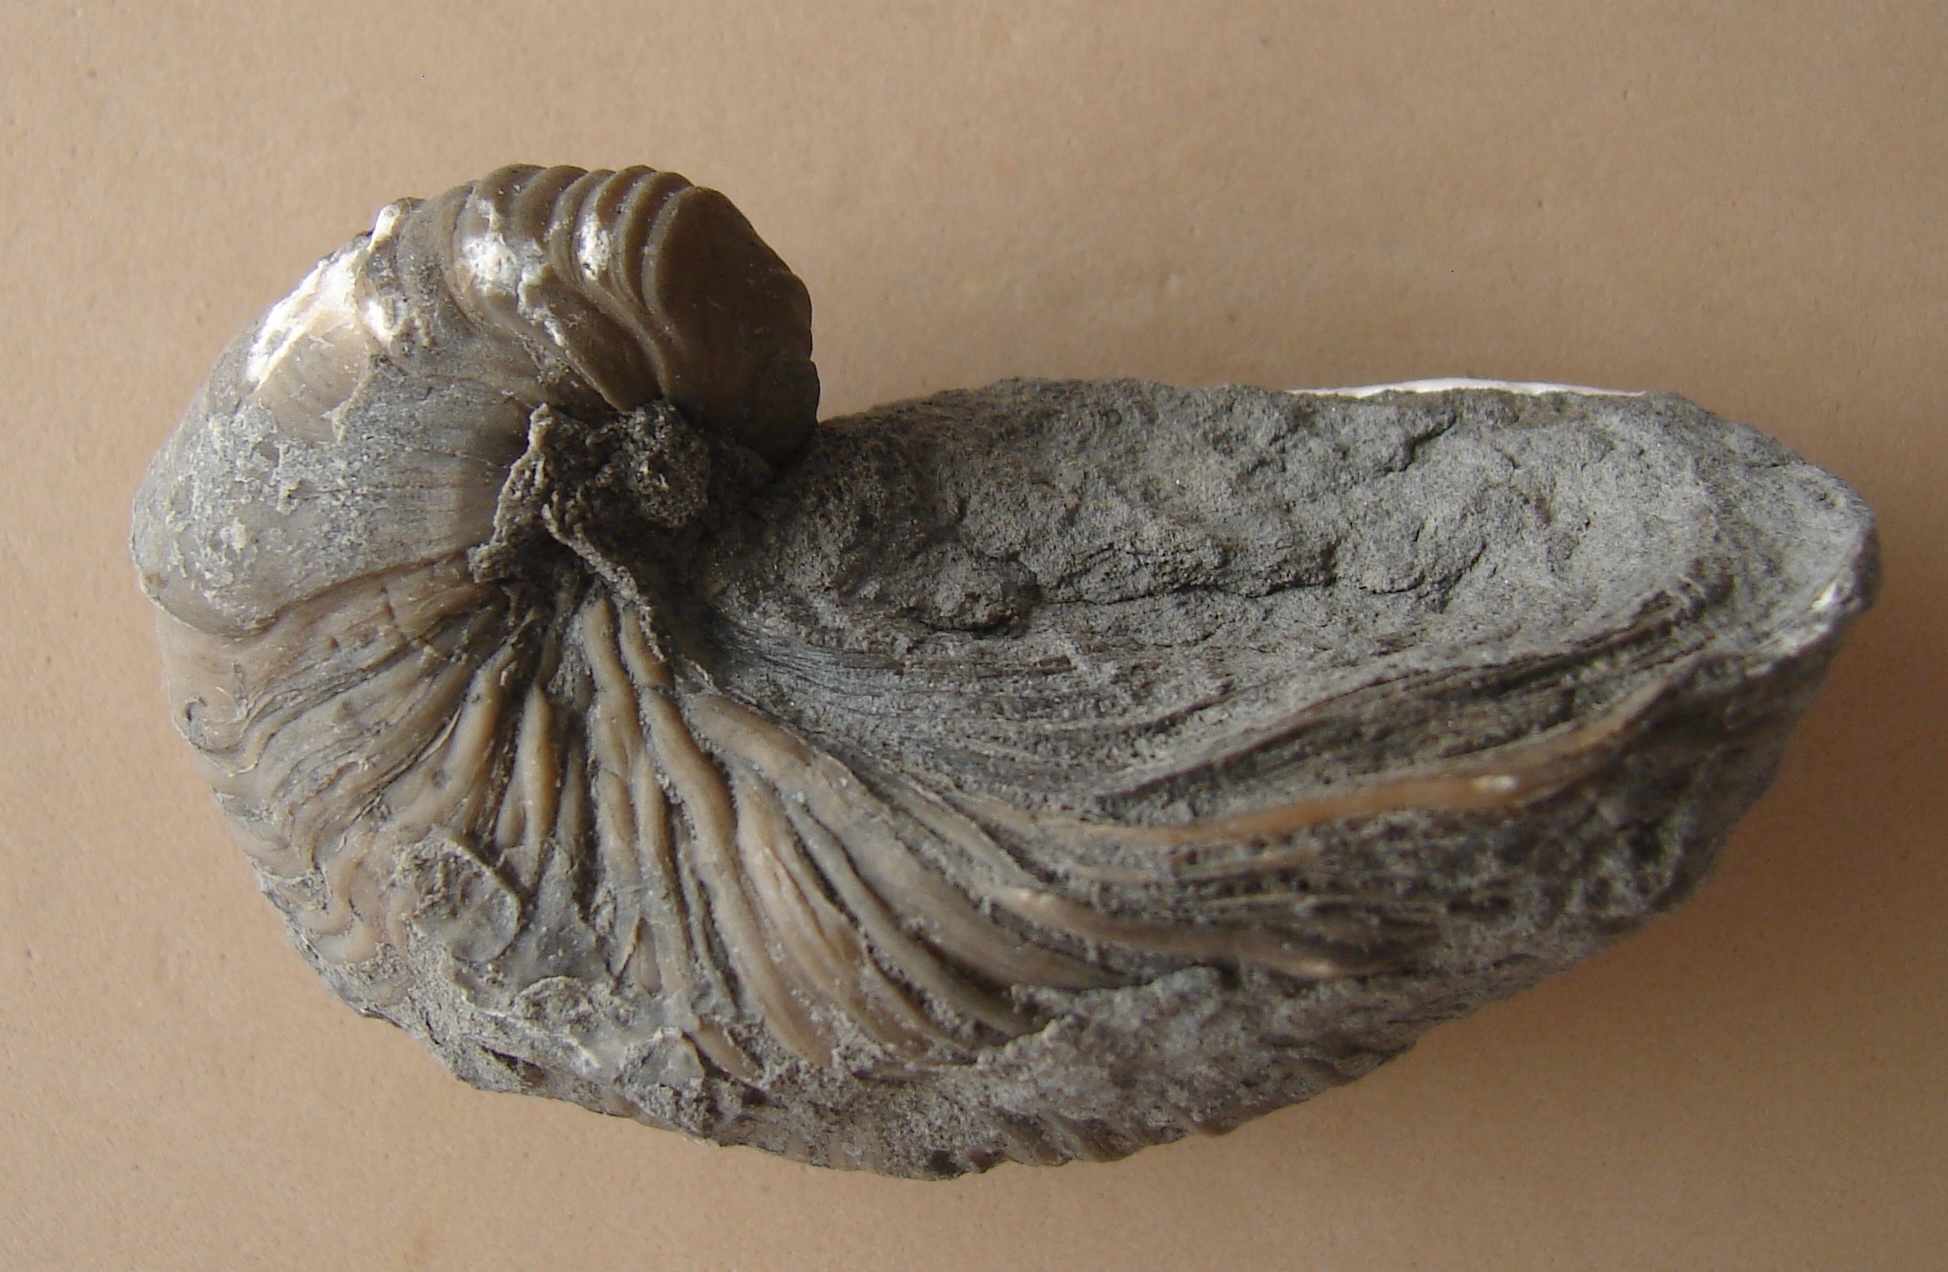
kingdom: Animalia
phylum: Mollusca
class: Bivalvia
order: Ostreida
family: Gryphaeidae
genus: Gryphaea
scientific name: Gryphaea arcuata
